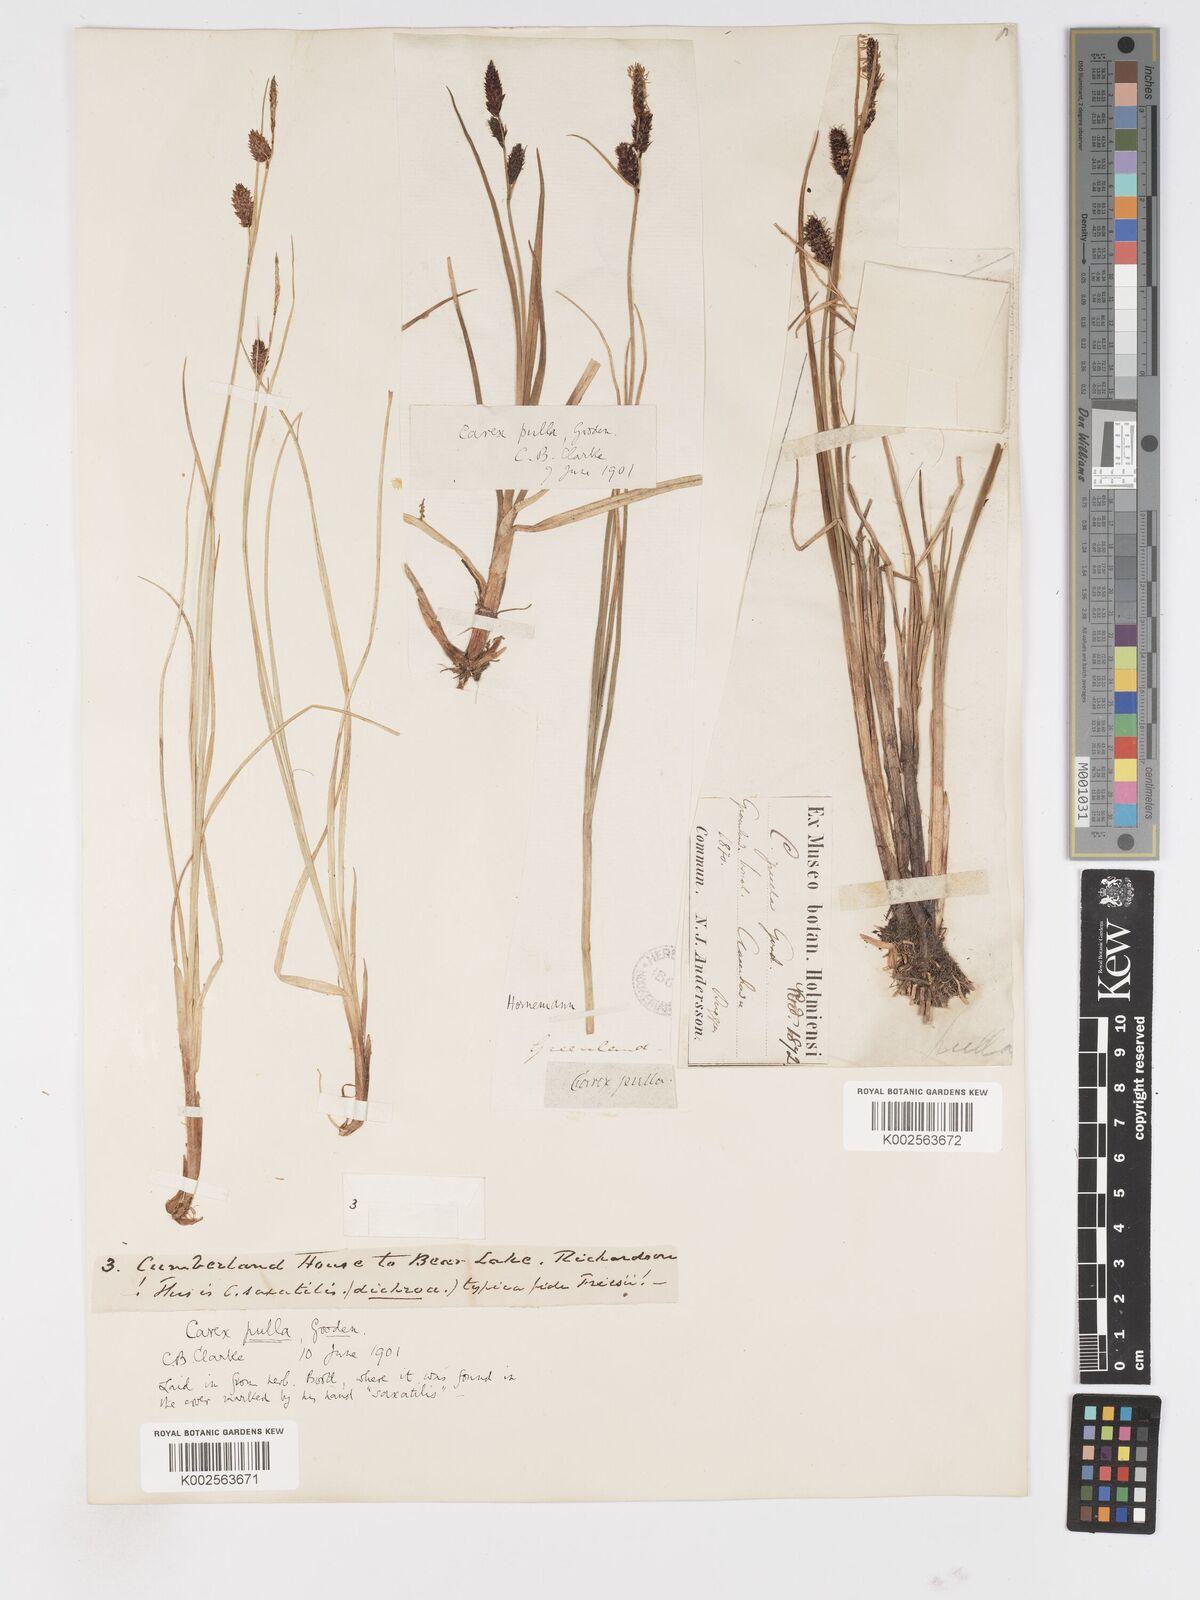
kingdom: Plantae
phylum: Tracheophyta
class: Liliopsida
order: Poales
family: Cyperaceae
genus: Carex
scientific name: Carex saxatilis
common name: Russet sedge
